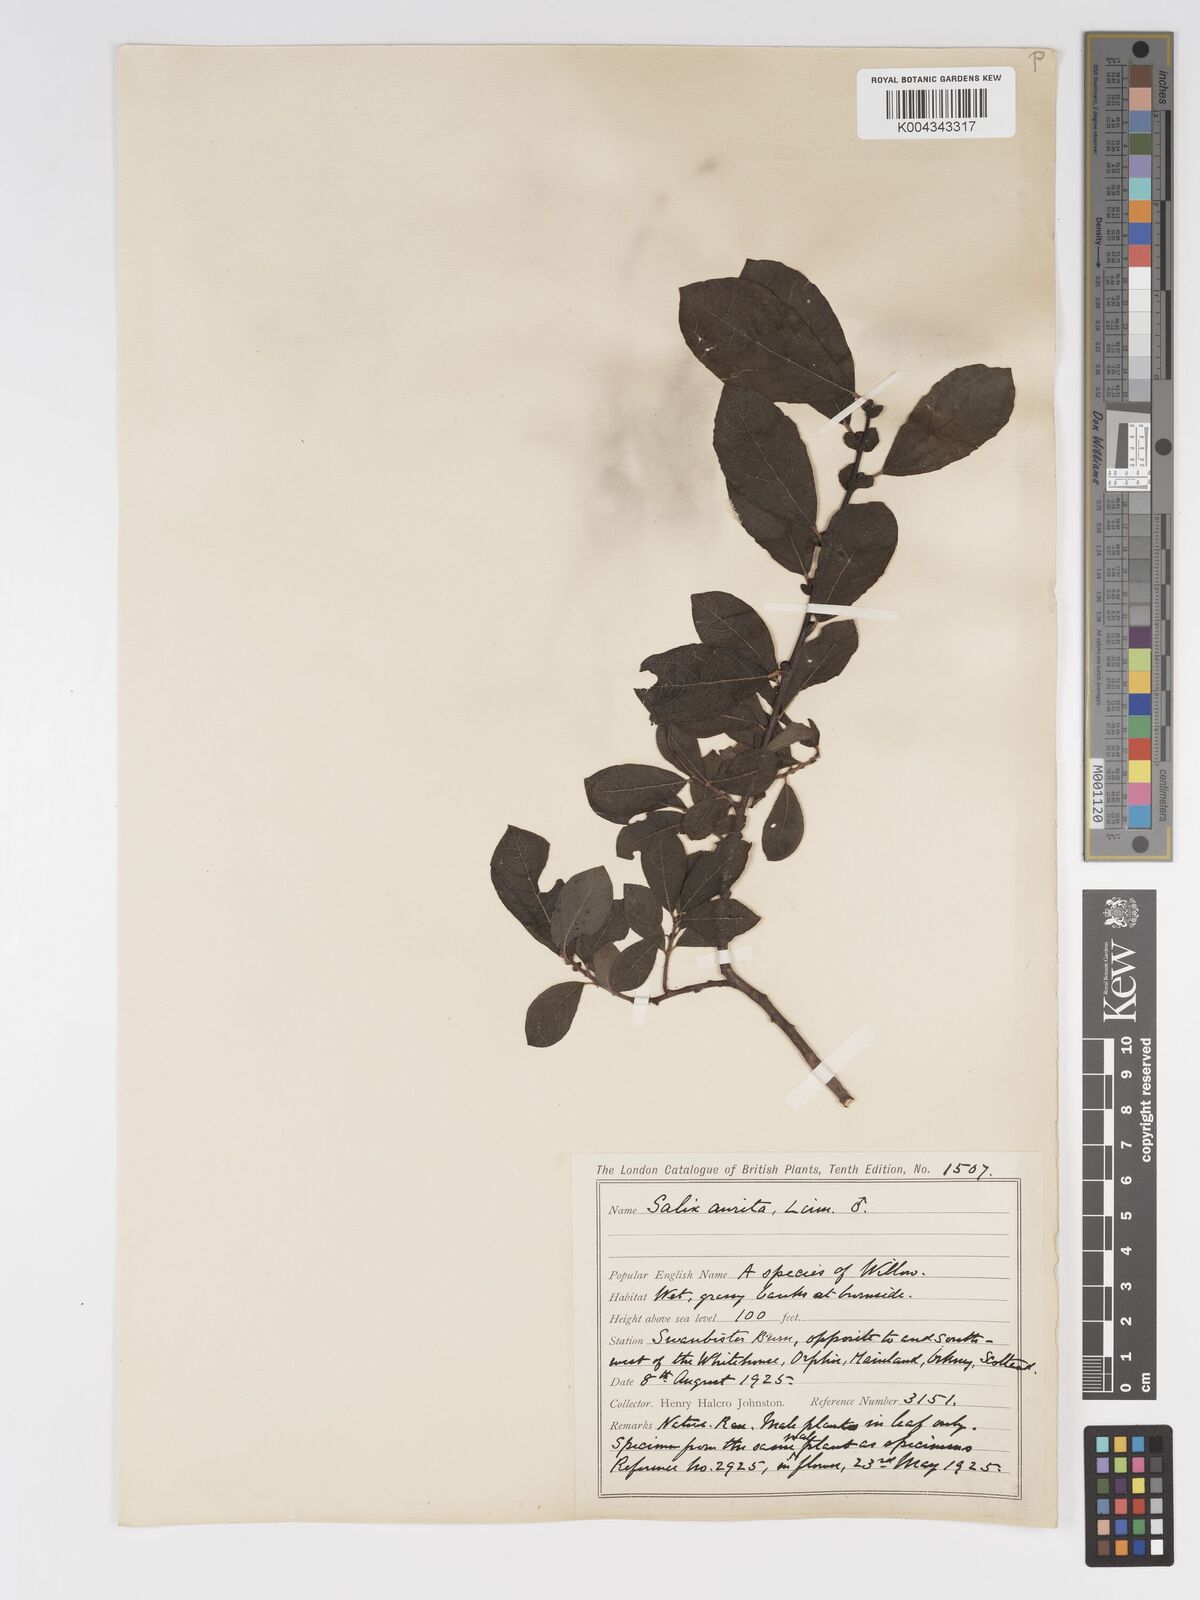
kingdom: Plantae
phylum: Tracheophyta
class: Magnoliopsida
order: Malpighiales
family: Salicaceae
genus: Salix
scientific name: Salix aurita
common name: Eared willow
